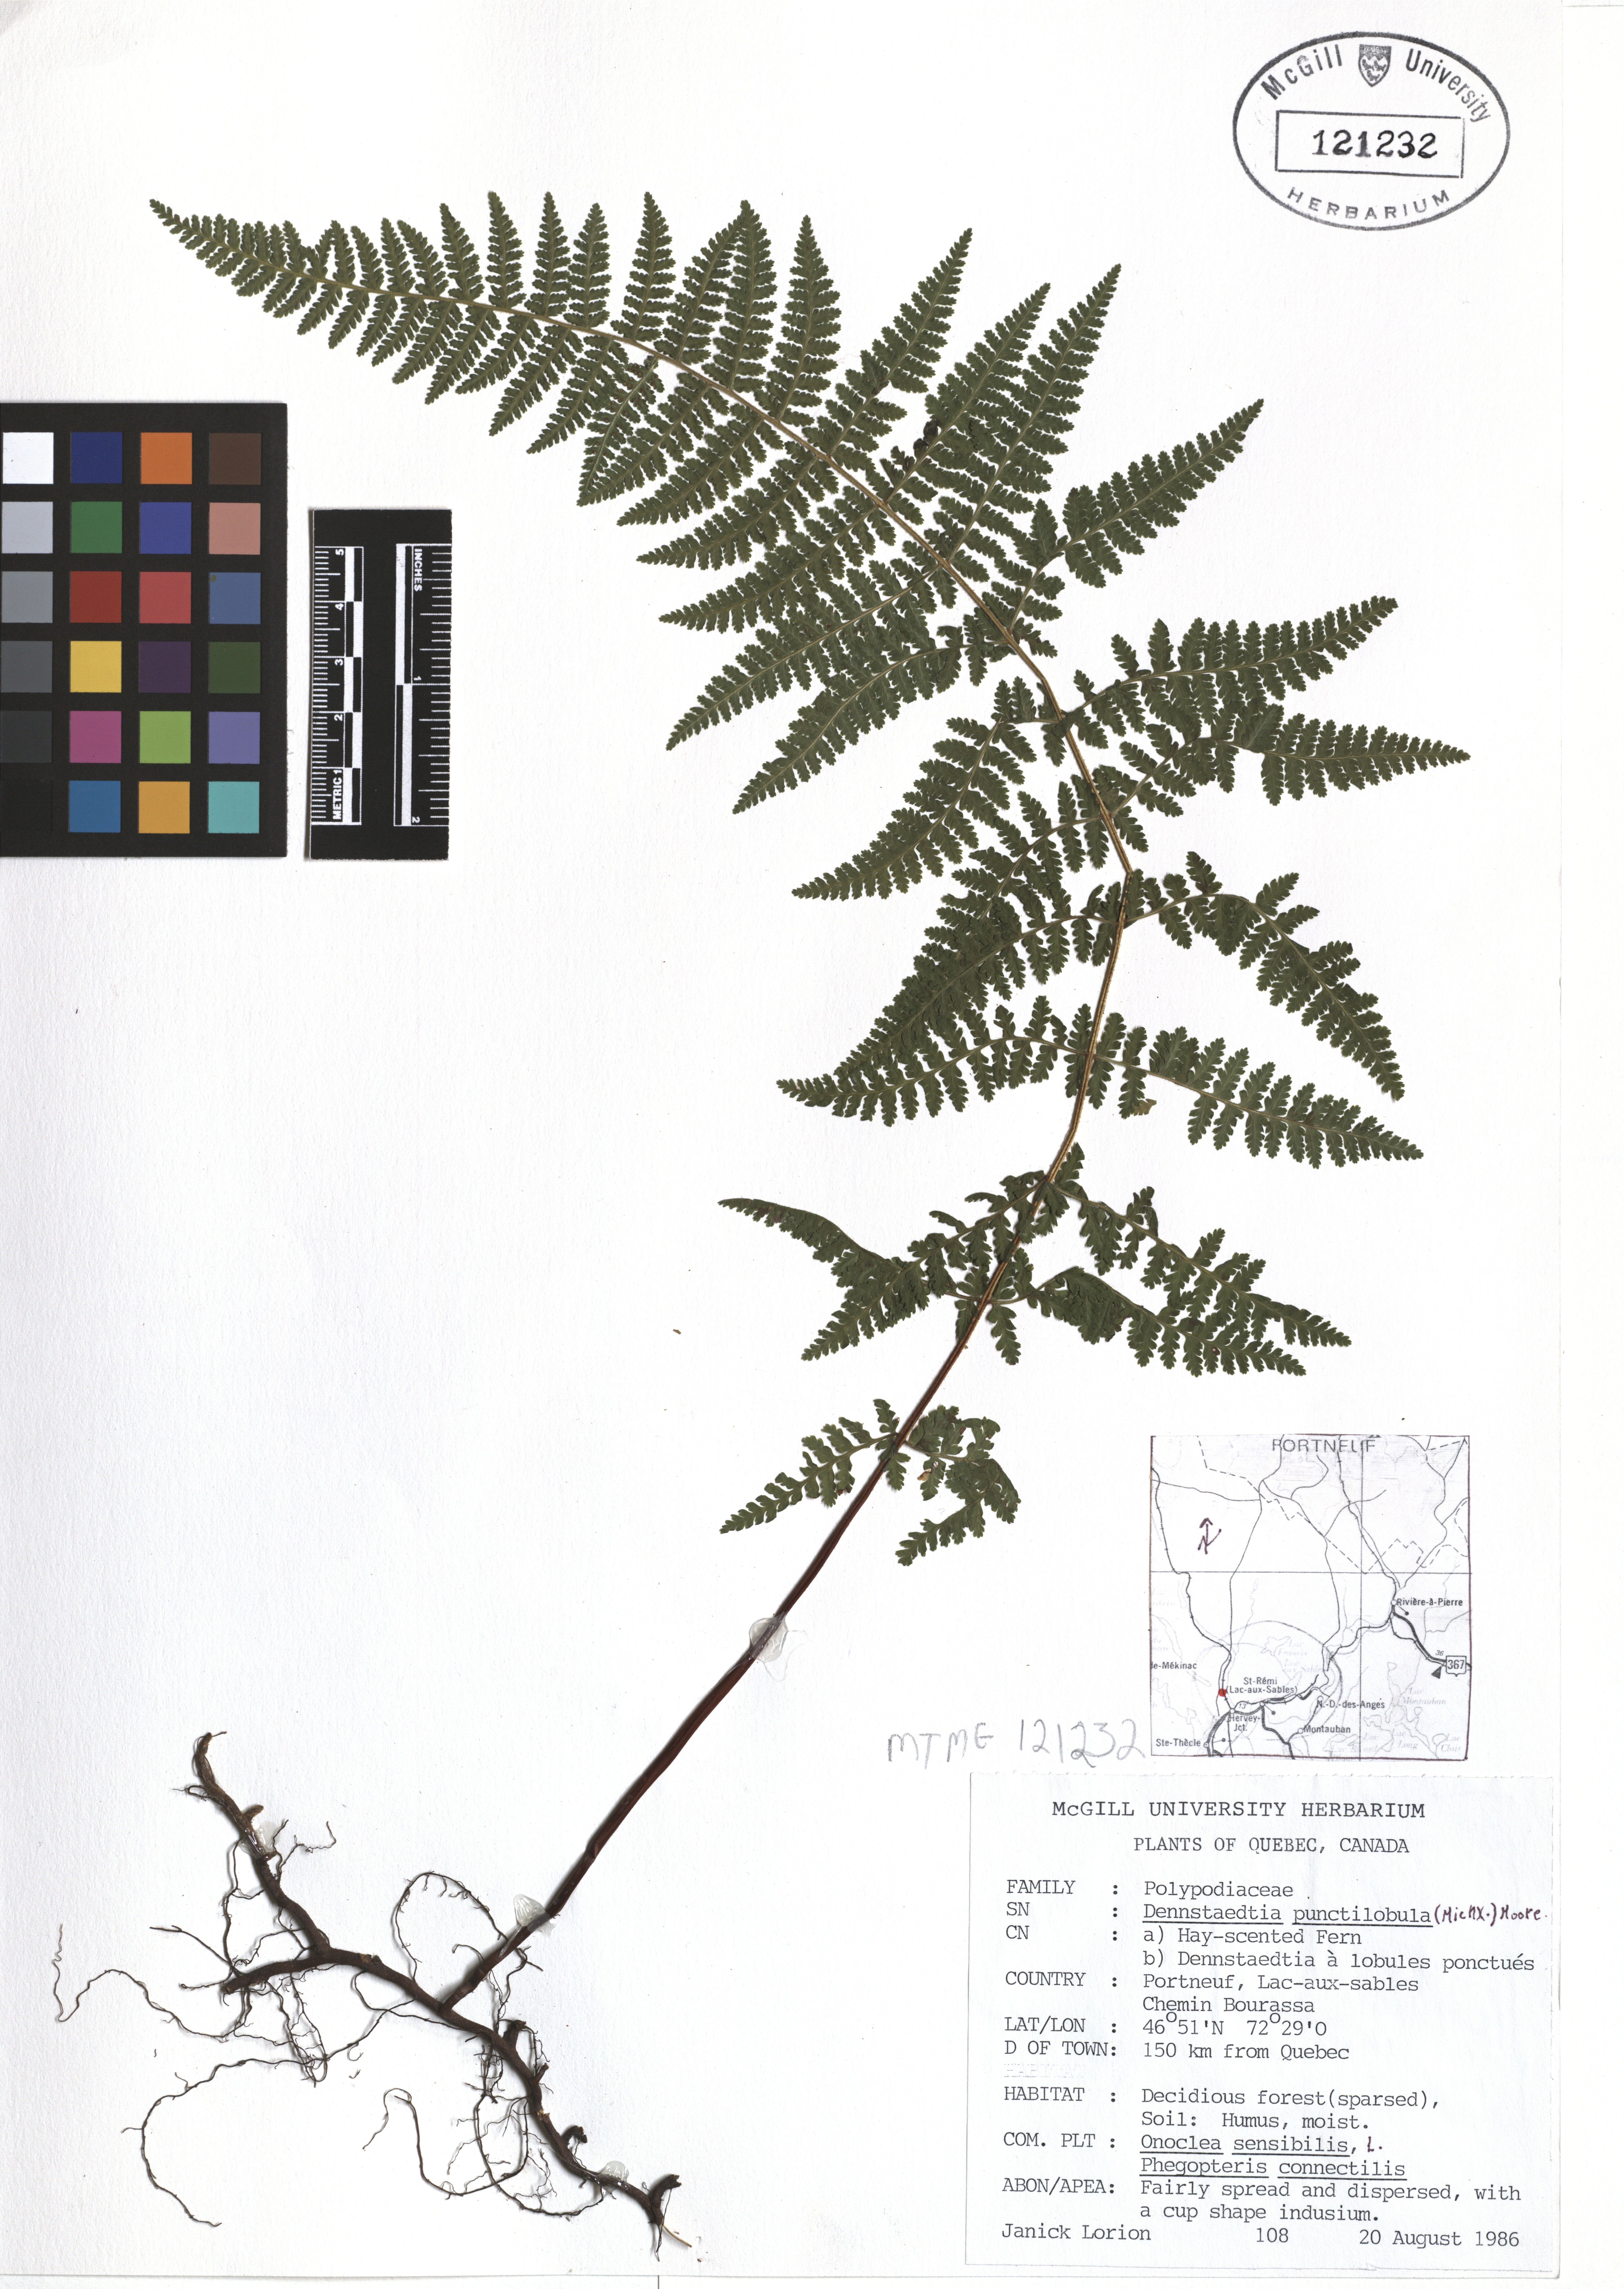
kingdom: Plantae
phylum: Tracheophyta
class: Polypodiopsida
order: Polypodiales
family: Dennstaedtiaceae
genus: Sitobolium
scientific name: Sitobolium punctilobum
